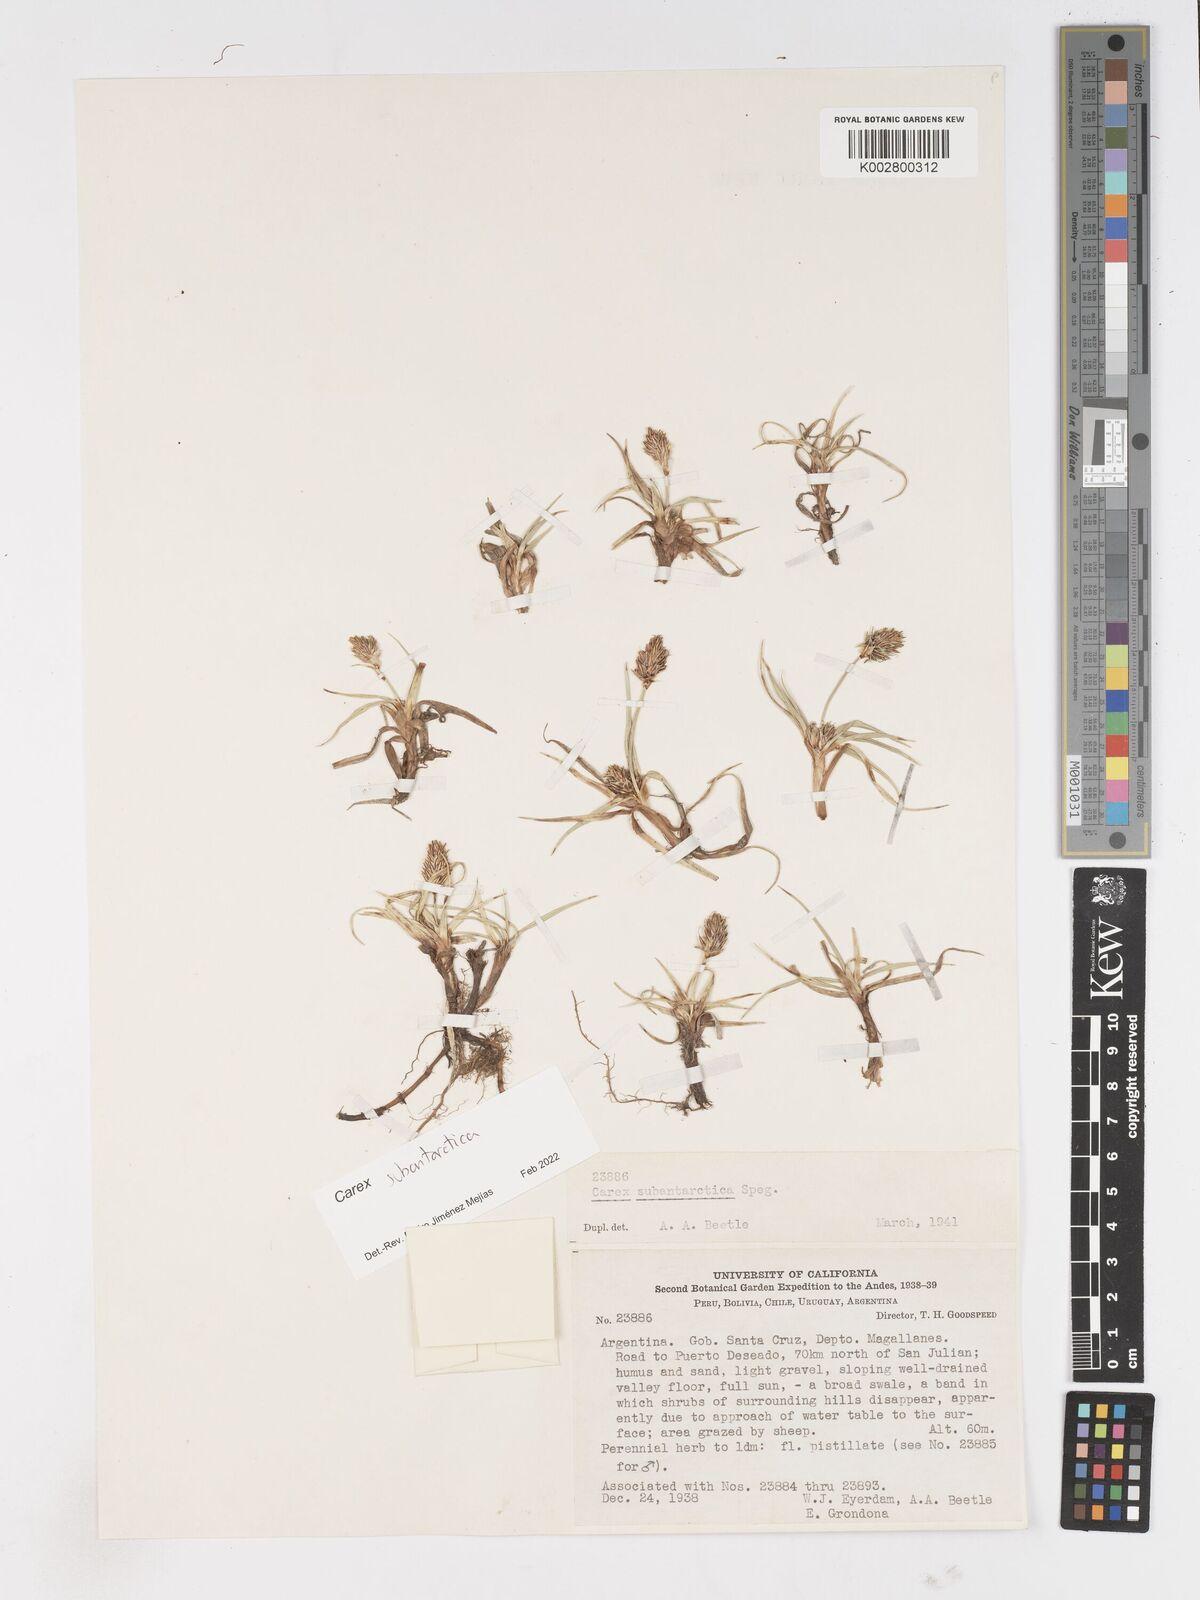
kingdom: Plantae
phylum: Tracheophyta
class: Liliopsida
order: Poales
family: Cyperaceae
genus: Carex
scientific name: Carex subantarctica
